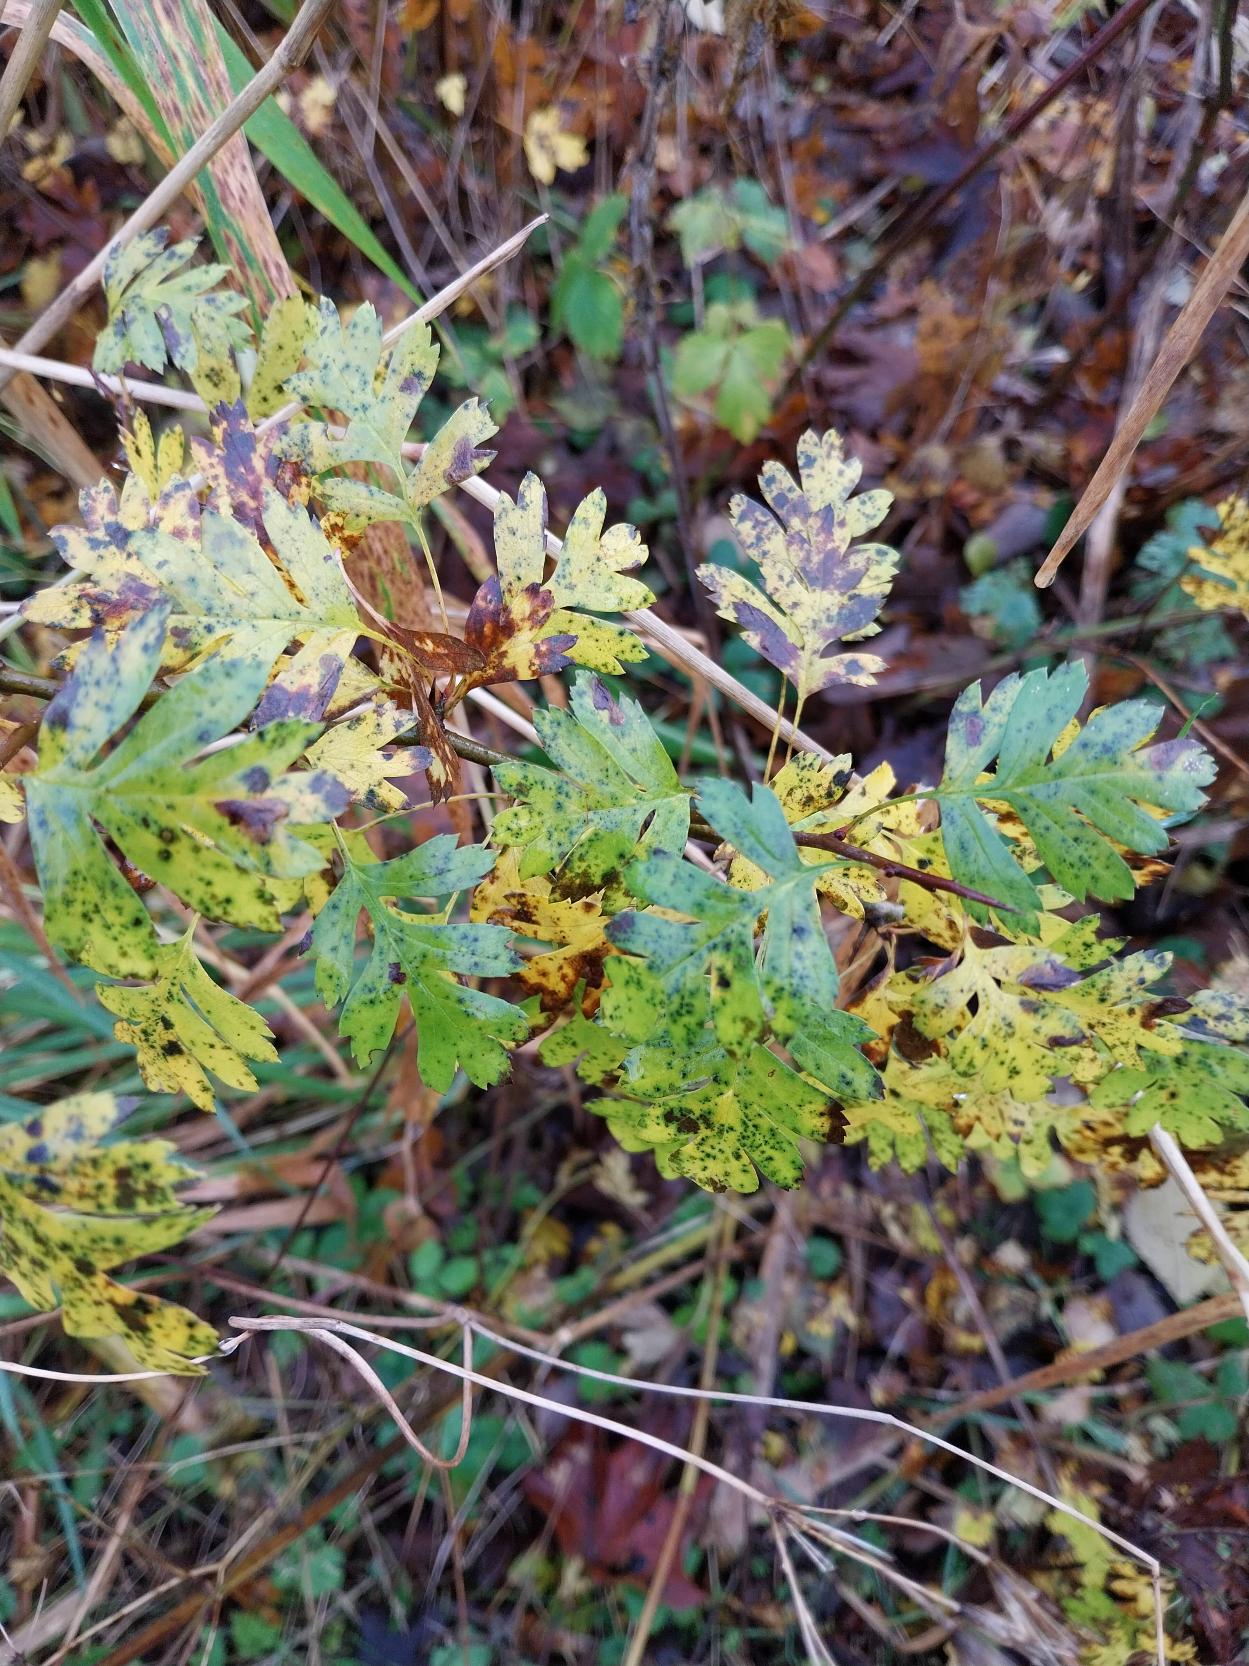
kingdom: Plantae
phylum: Tracheophyta
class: Magnoliopsida
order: Rosales
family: Rosaceae
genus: Crataegus
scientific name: Crataegus monogyna
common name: Engriflet hvidtjørn
